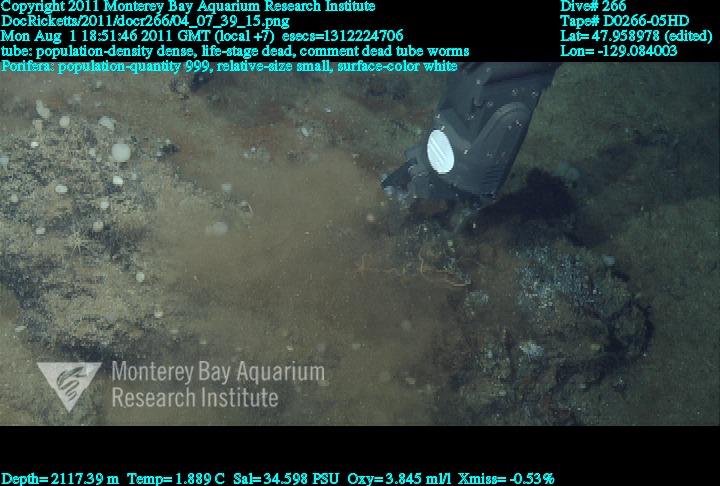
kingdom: Animalia
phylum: Porifera
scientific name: Porifera
